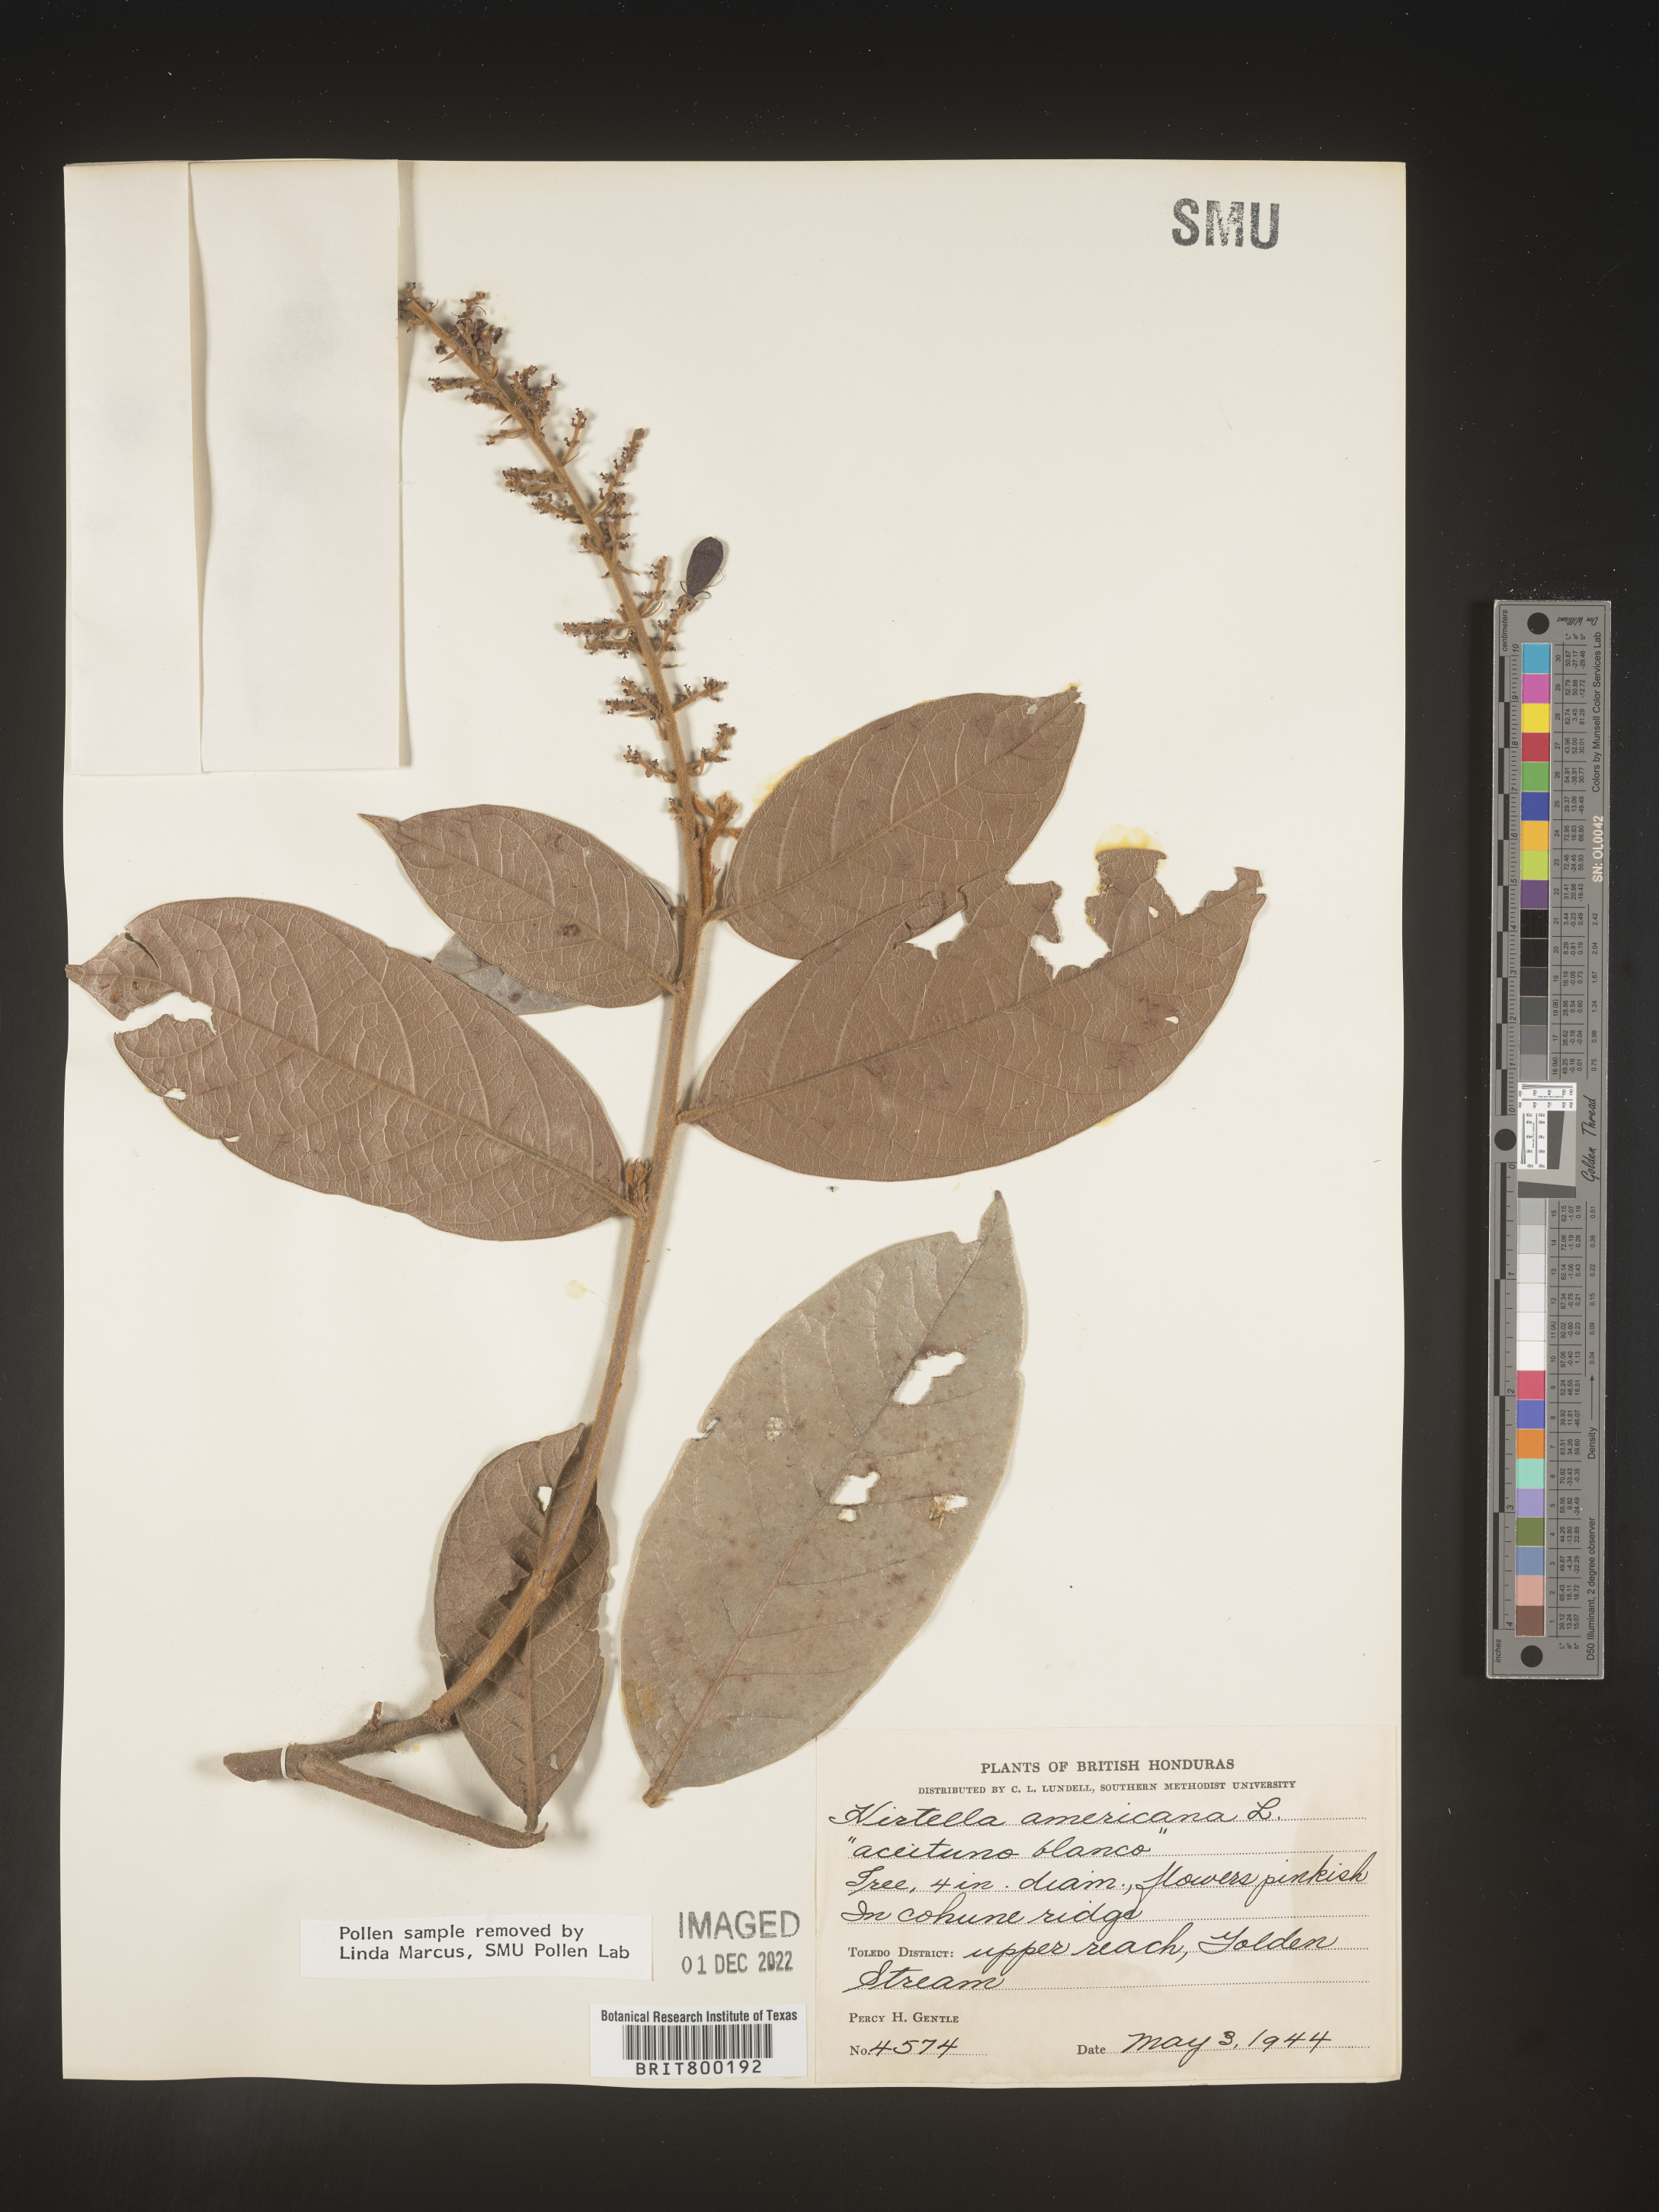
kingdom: Plantae
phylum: Tracheophyta
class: Magnoliopsida
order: Malpighiales
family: Chrysobalanaceae
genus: Hirtella
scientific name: Hirtella
